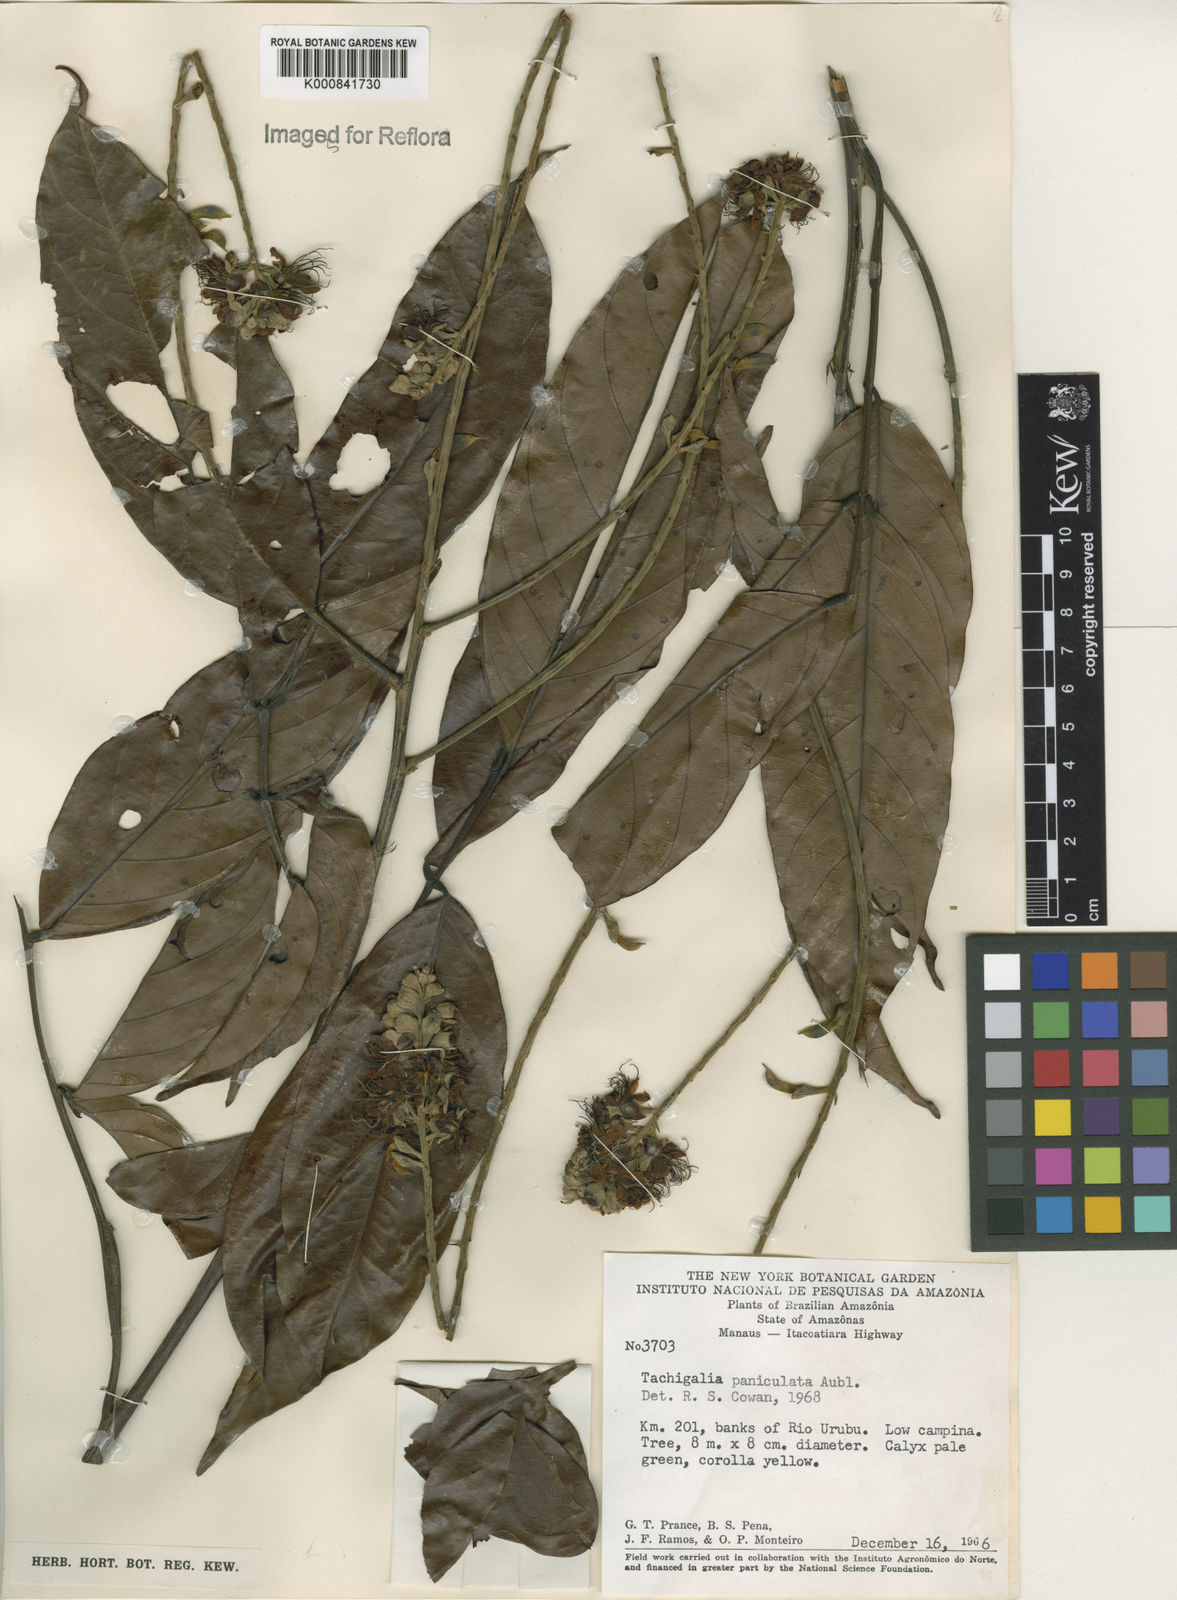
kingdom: Plantae
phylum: Tracheophyta
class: Magnoliopsida
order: Fabales
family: Fabaceae
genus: Tachigali
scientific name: Tachigali paniculata
